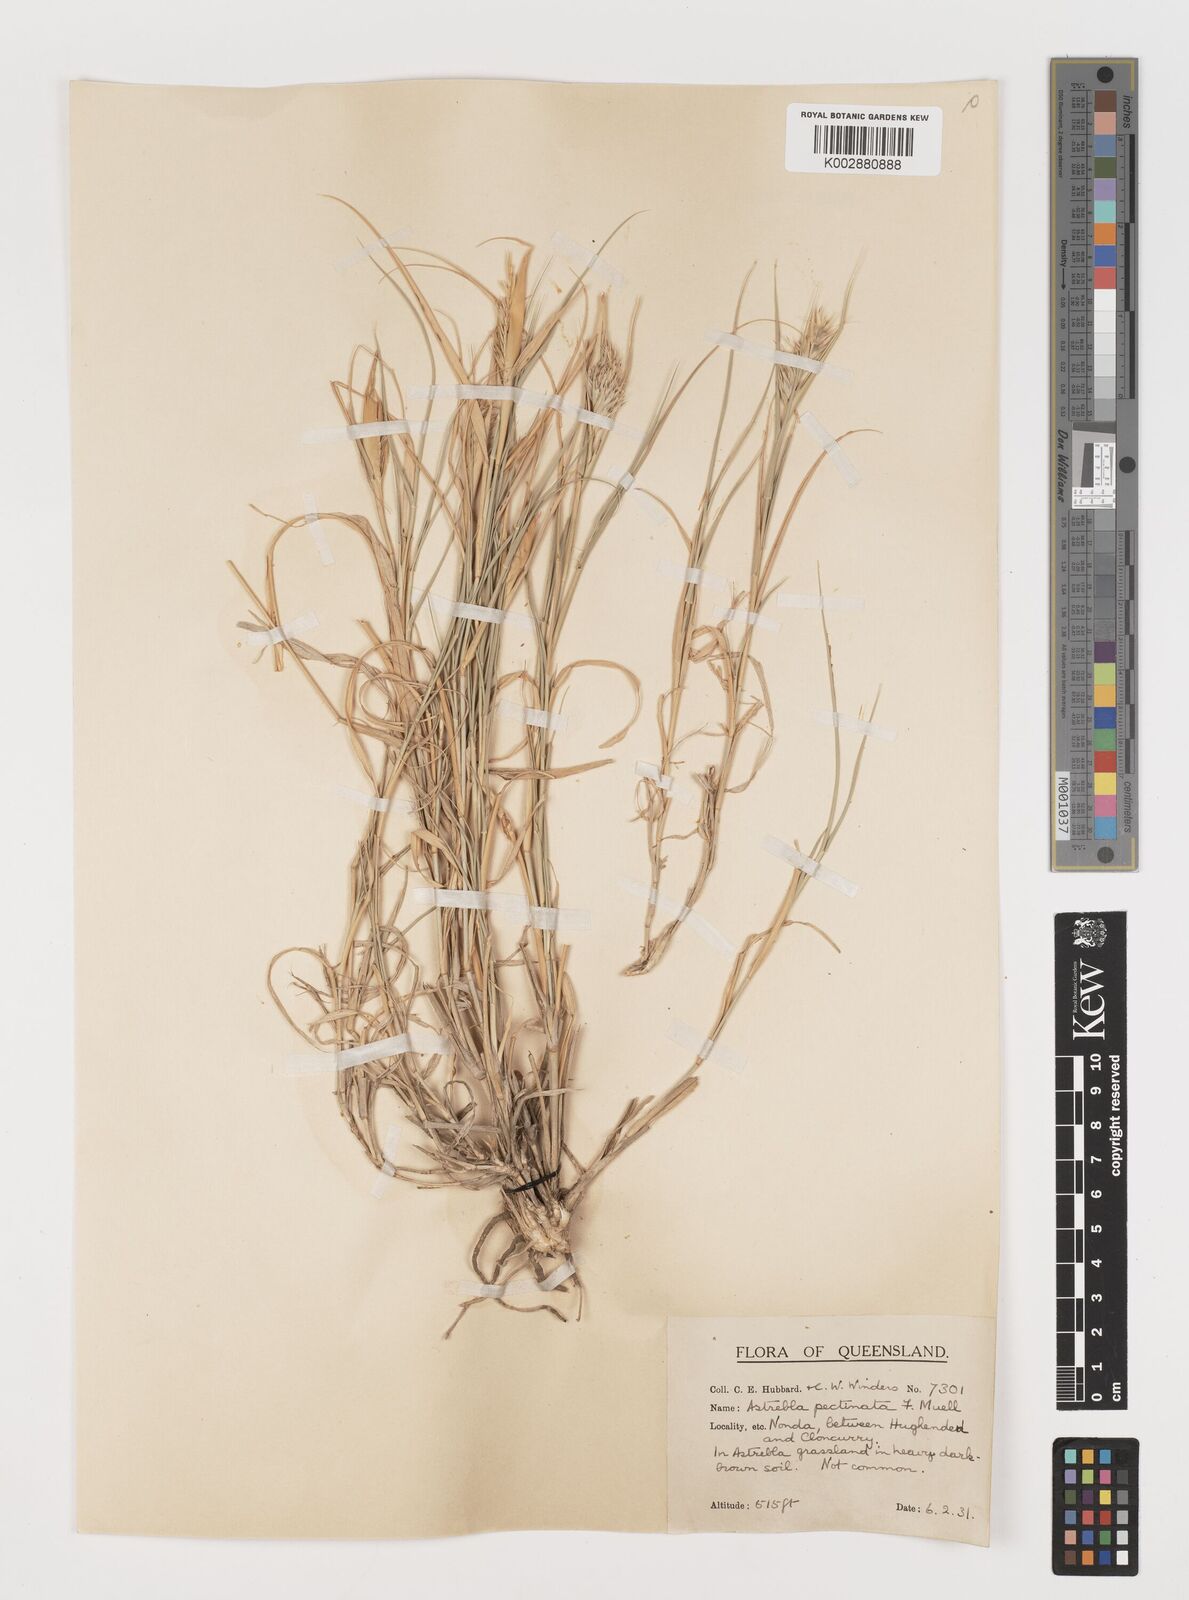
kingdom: Plantae
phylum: Tracheophyta
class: Liliopsida
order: Poales
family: Poaceae
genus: Astrebla
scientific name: Astrebla pectinata
